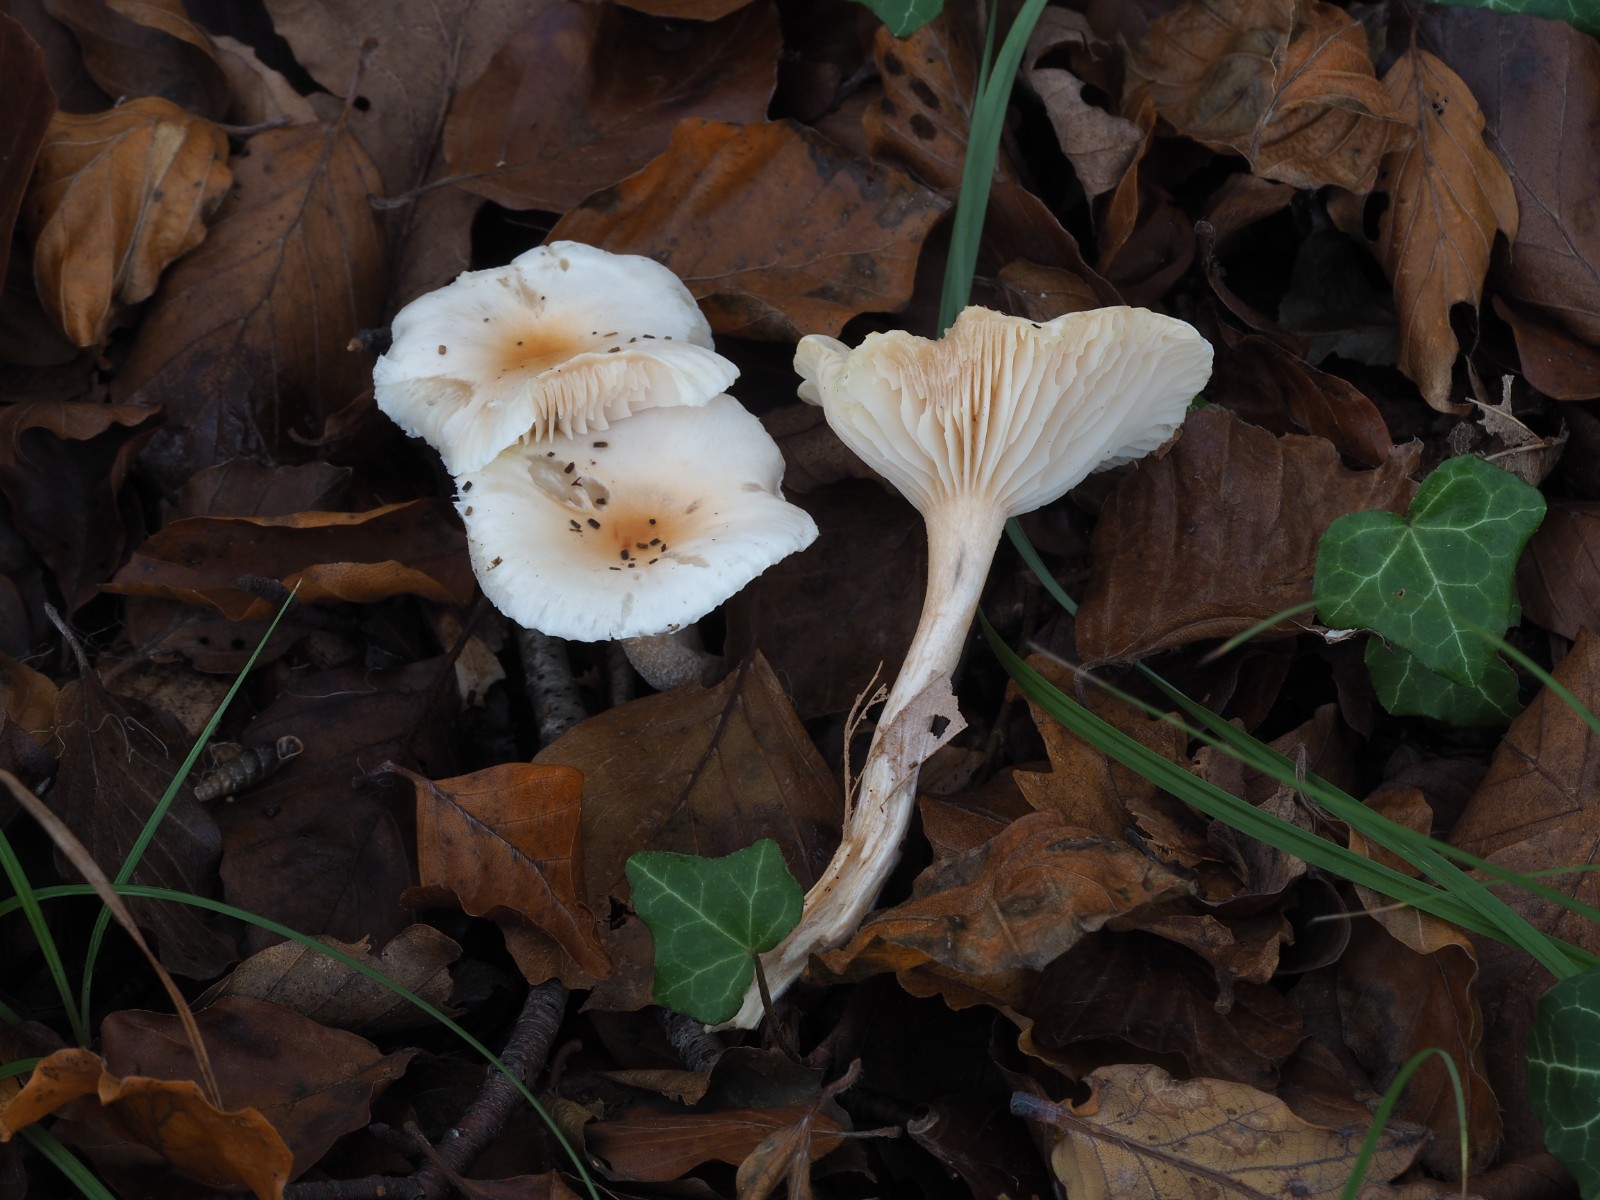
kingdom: Fungi
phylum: Basidiomycota
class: Agaricomycetes
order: Agaricales
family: Hygrophoraceae
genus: Hygrophorus
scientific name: Hygrophorus unicolor
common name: orangeøjet sneglehat
